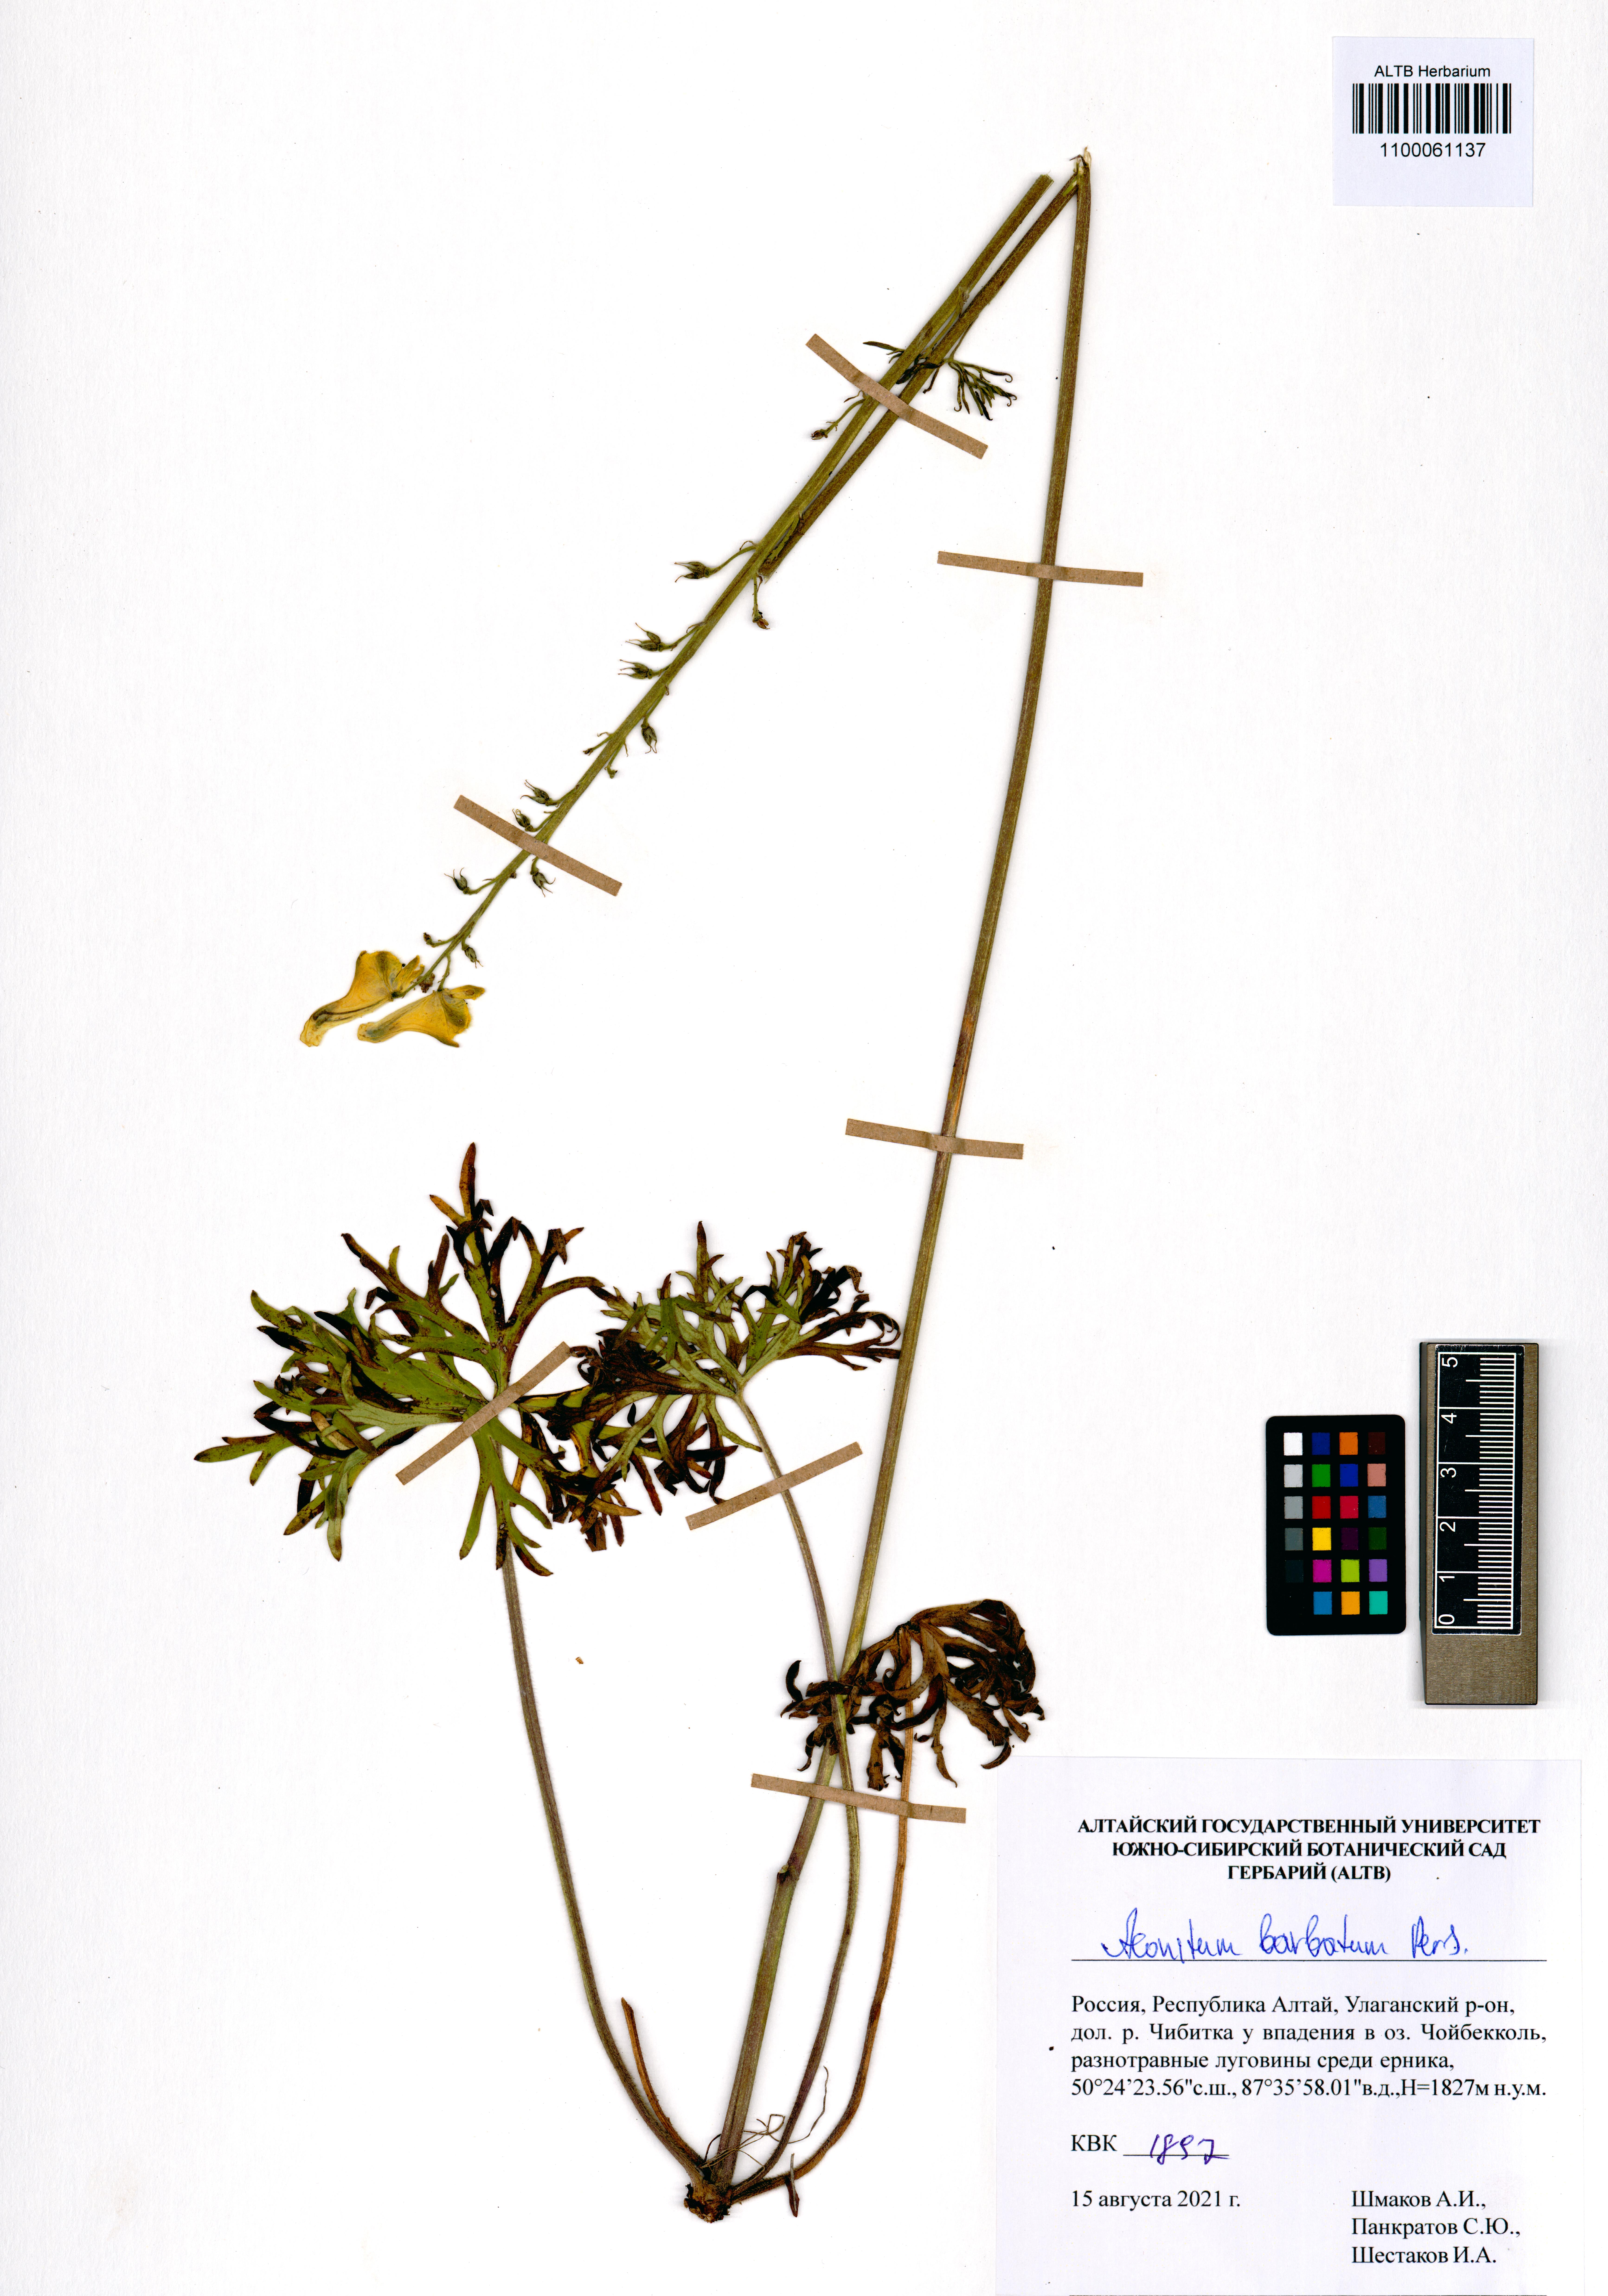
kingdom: Plantae
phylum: Tracheophyta
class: Magnoliopsida
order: Ranunculales
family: Ranunculaceae
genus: Aconitum
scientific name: Aconitum barbatum
